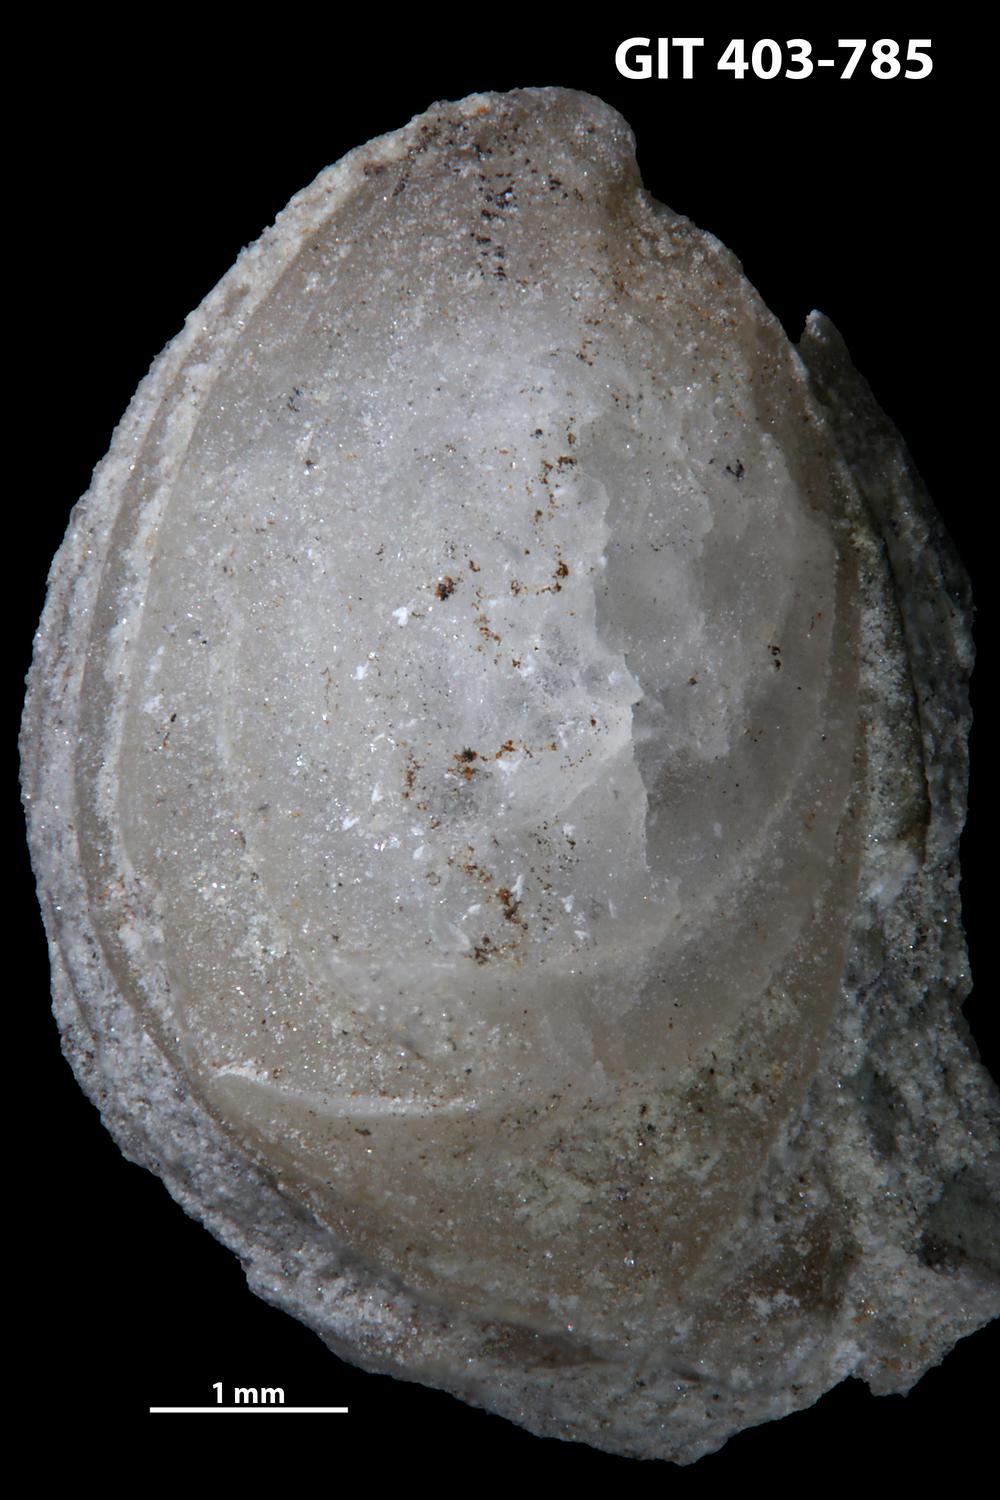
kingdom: Animalia
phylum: Brachiopoda
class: Rhynchonellata
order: Rhynchonellida
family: Rhynchotrematidae
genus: Rhynchotreta
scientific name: Rhynchotreta
